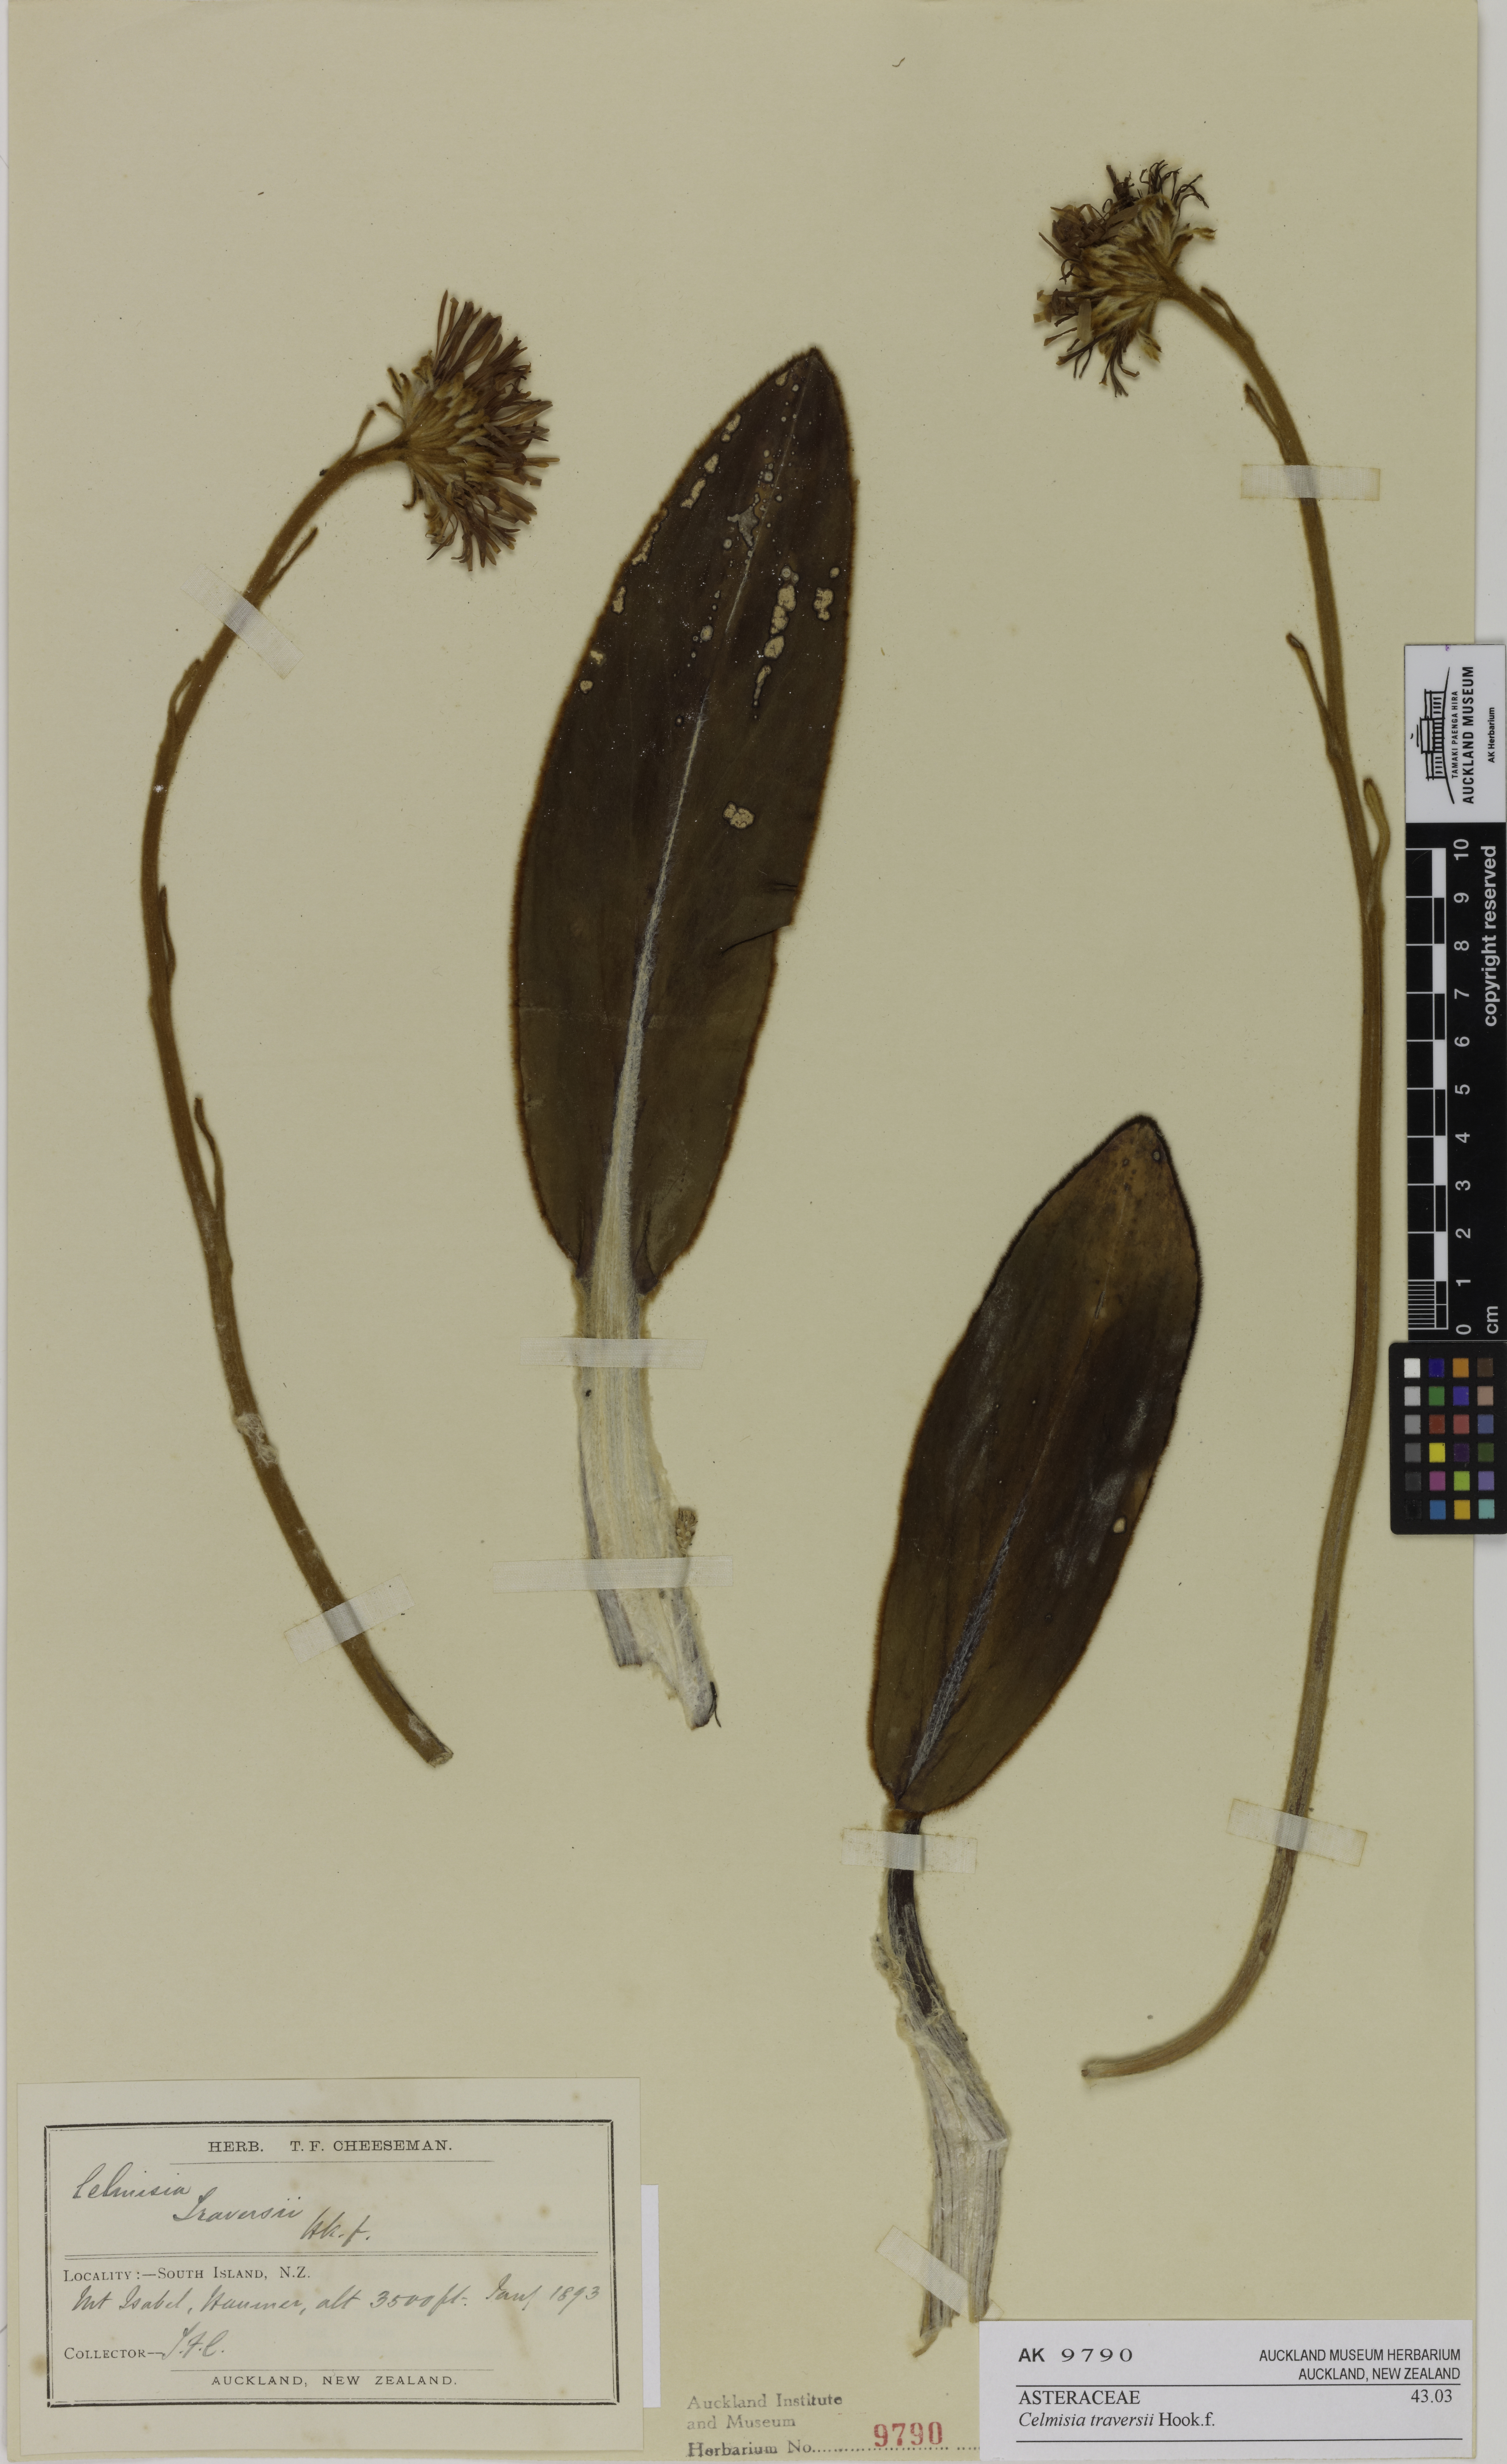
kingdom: Plantae
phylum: Tracheophyta
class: Magnoliopsida
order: Asterales
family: Asteraceae
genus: Celmisia
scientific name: Celmisia traversii
